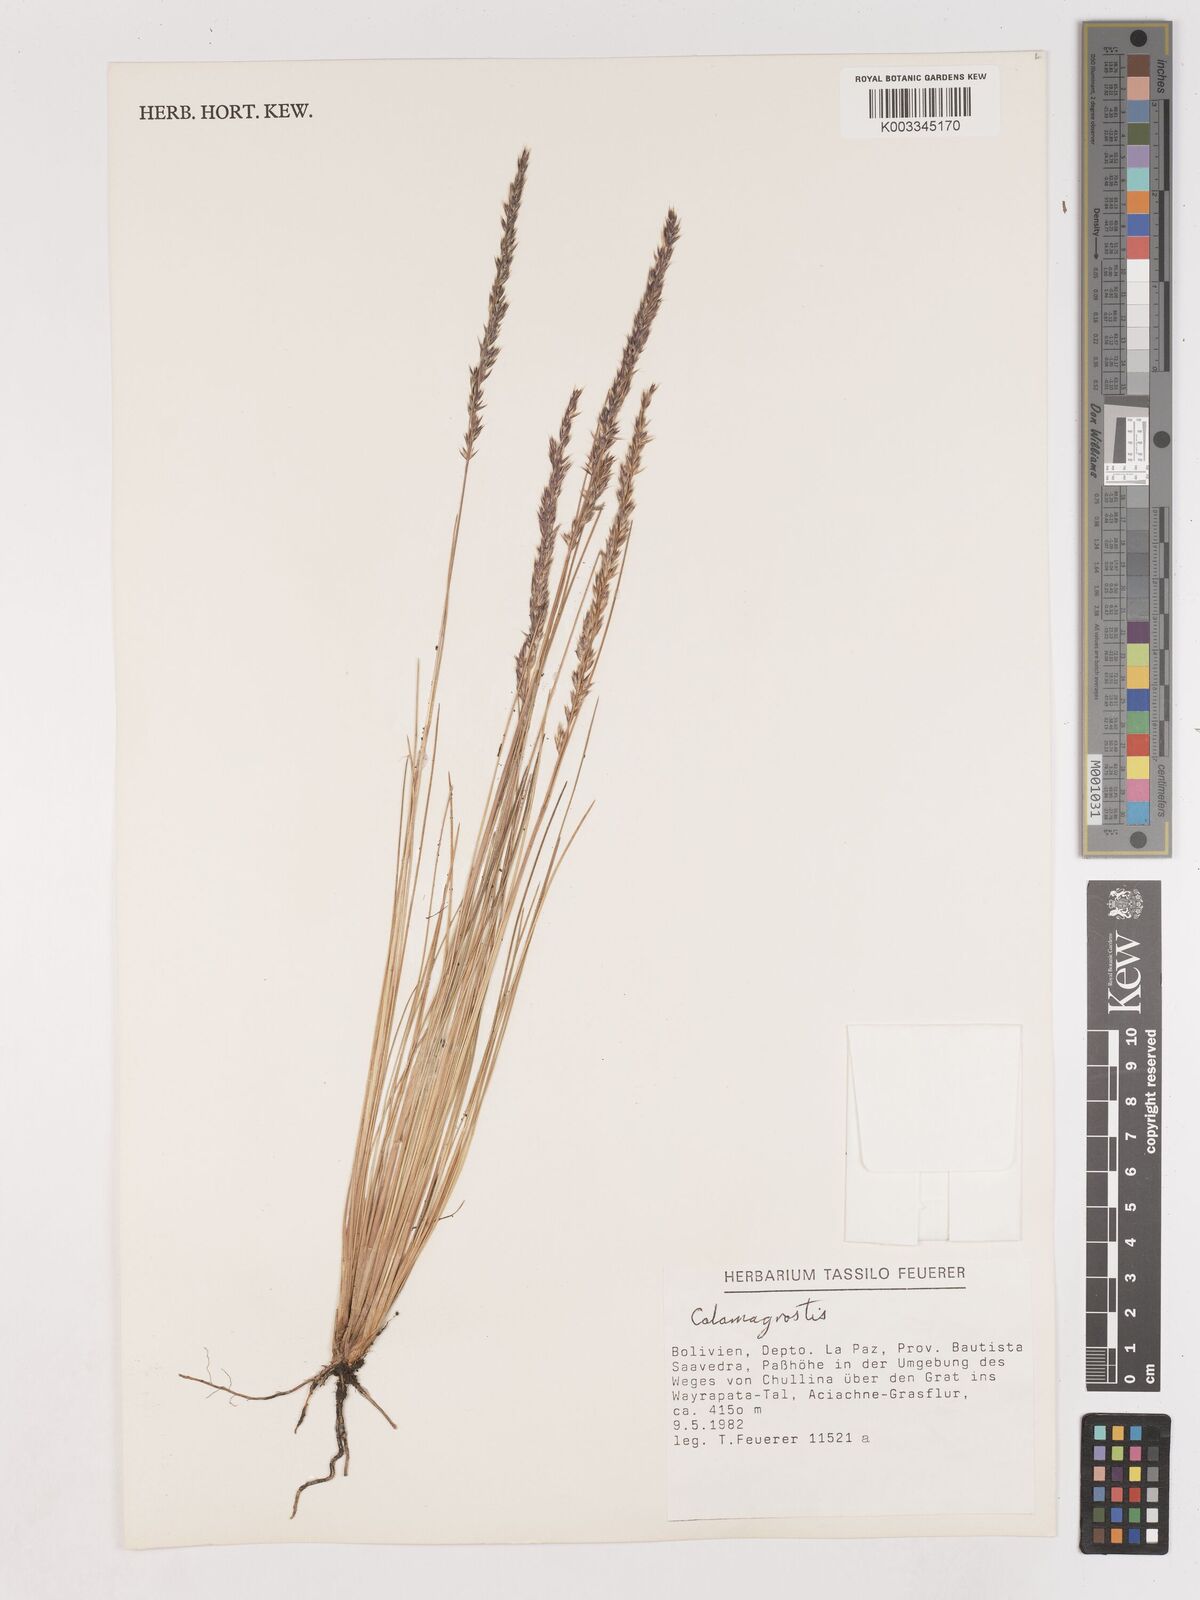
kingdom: Plantae
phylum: Tracheophyta
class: Liliopsida
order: Poales
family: Poaceae
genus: Calamagrostis
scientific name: Calamagrostis
